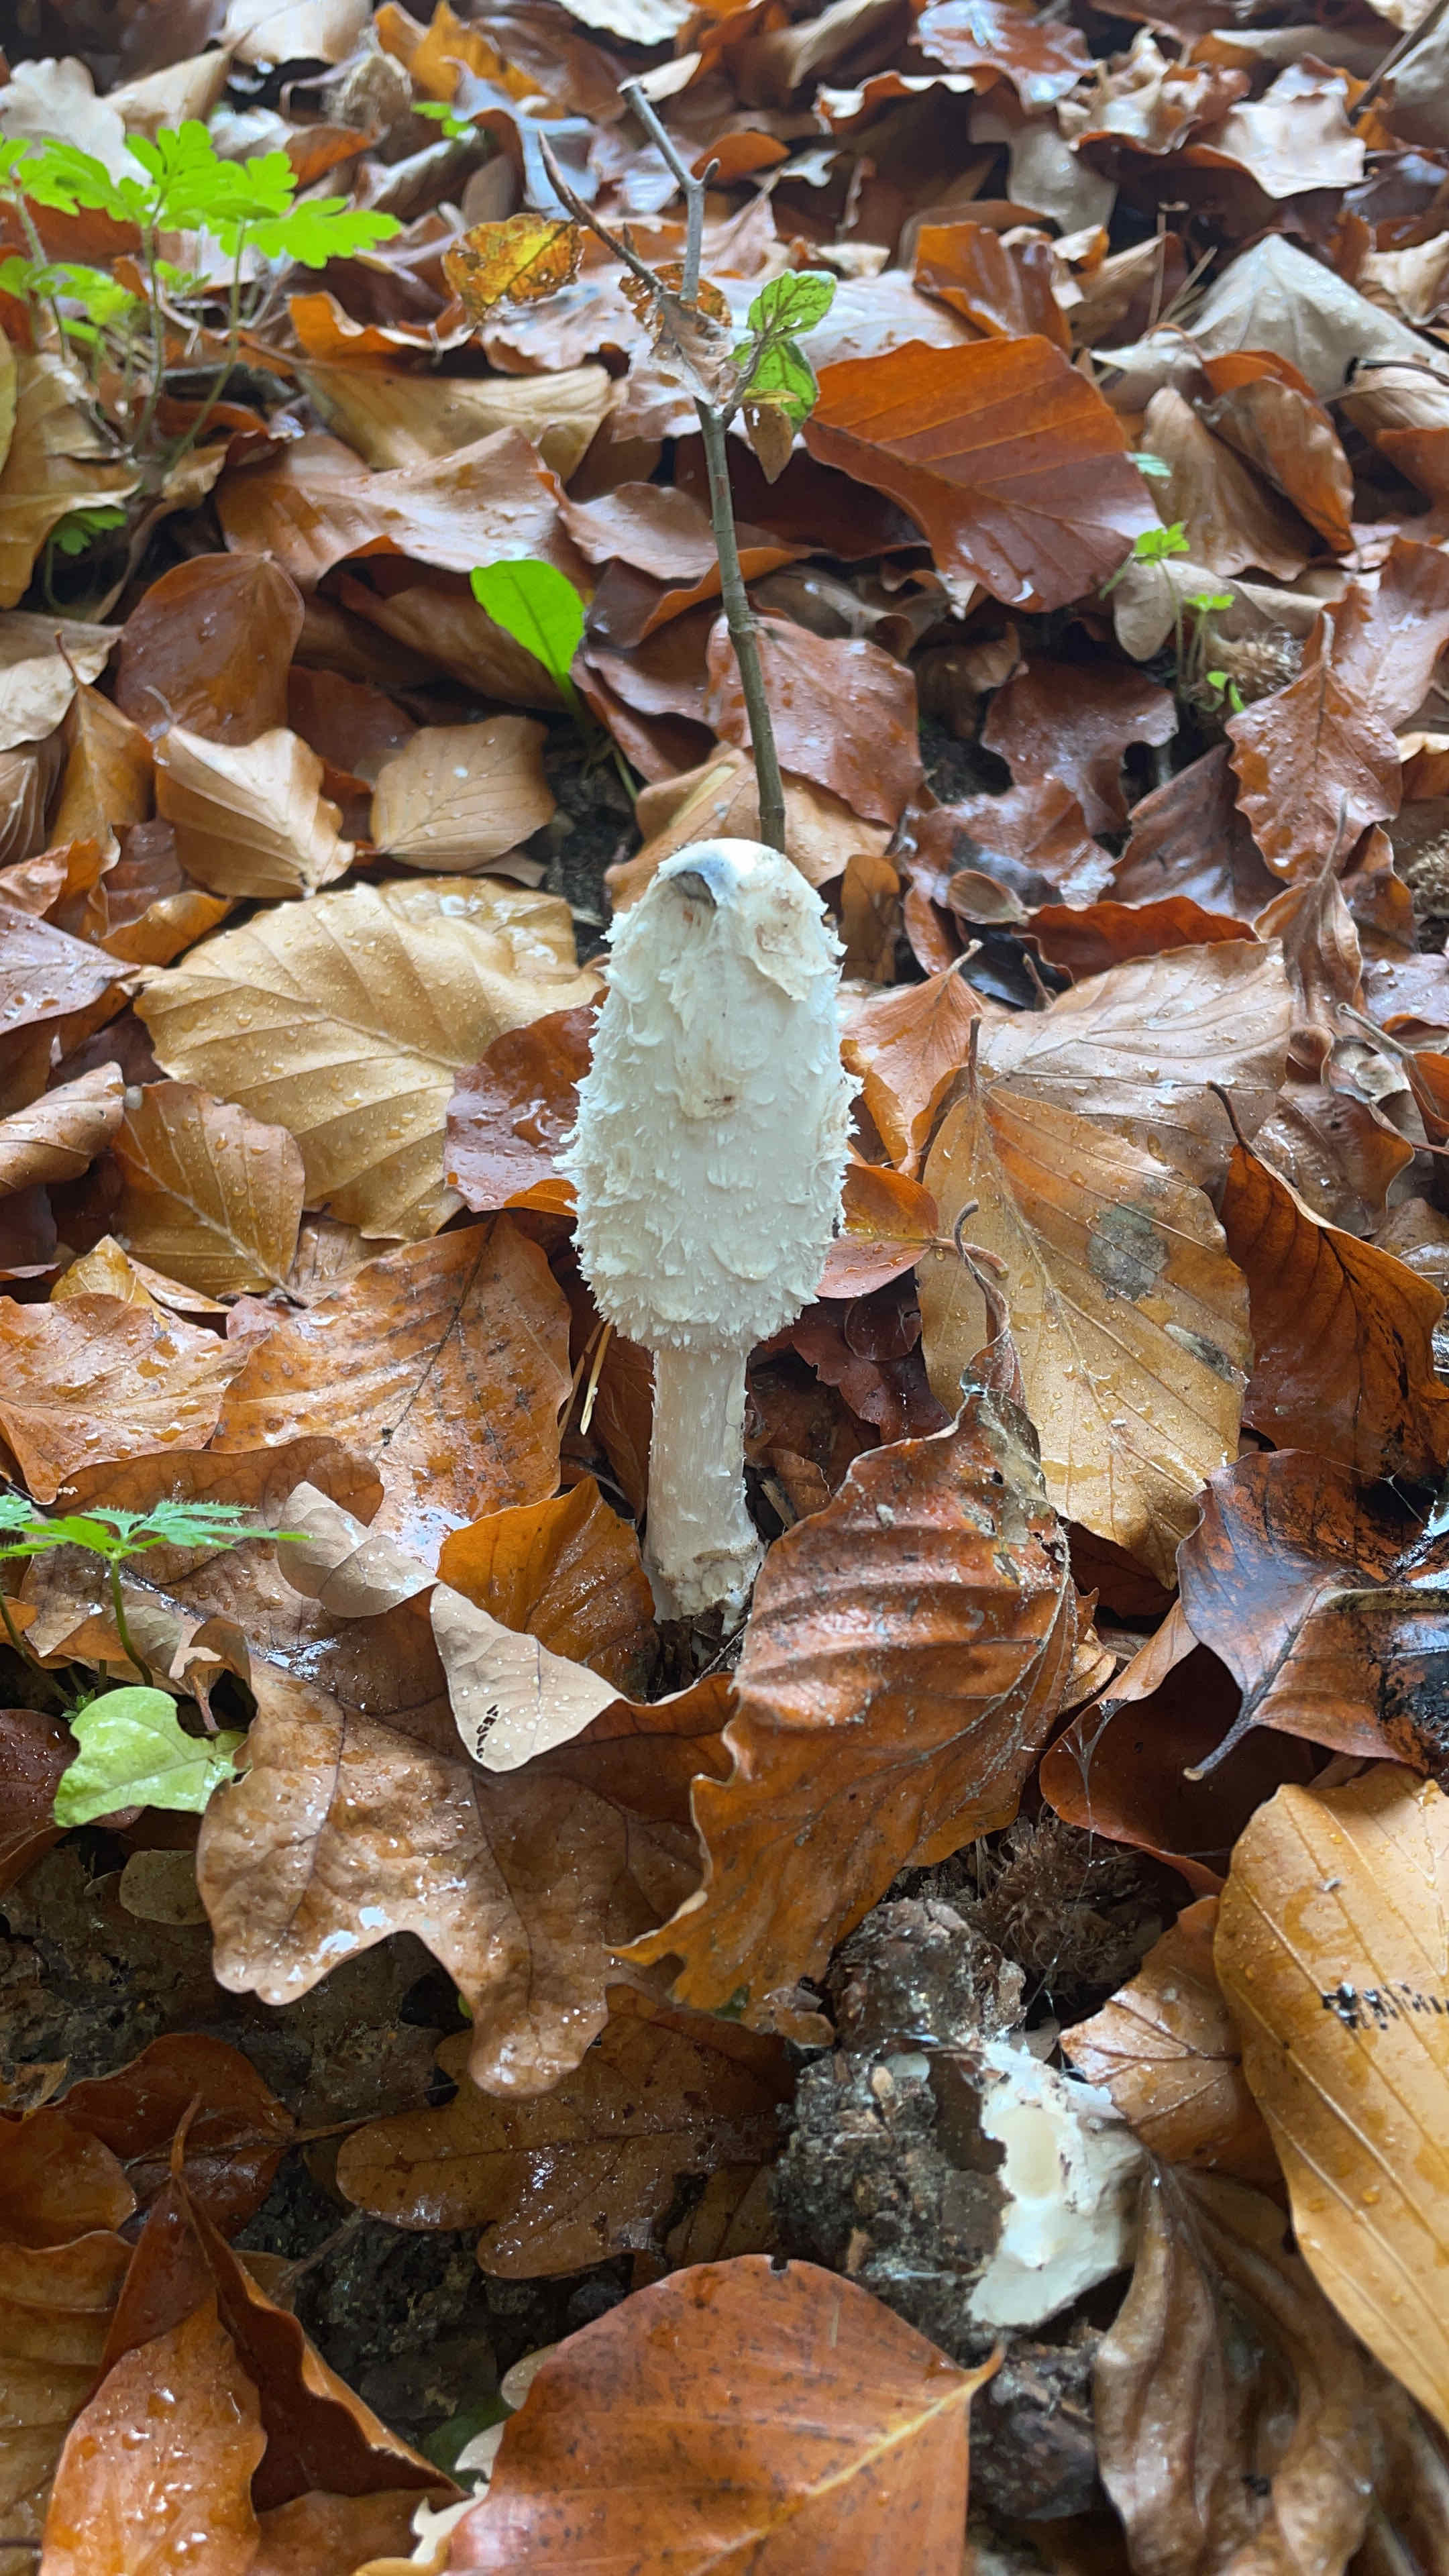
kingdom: Fungi
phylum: Basidiomycota
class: Agaricomycetes
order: Agaricales
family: Agaricaceae
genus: Coprinus
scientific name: Coprinus comatus
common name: stor parykhat
